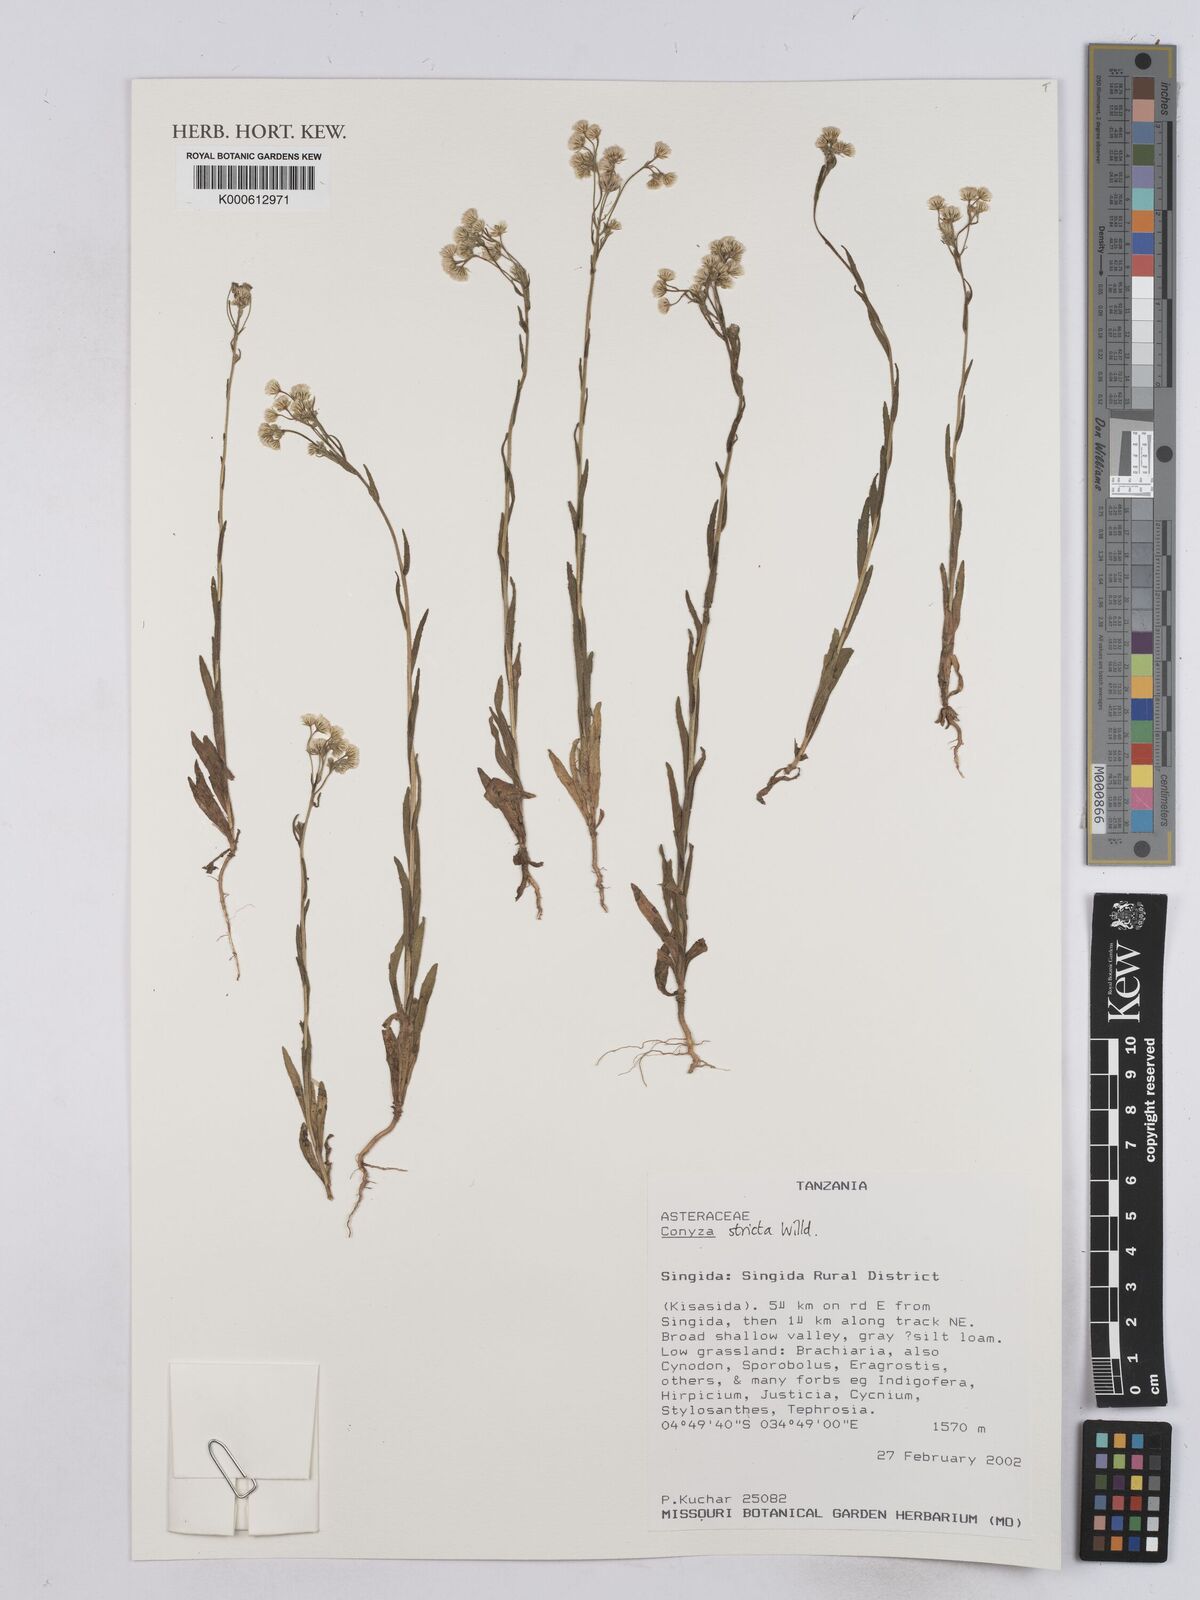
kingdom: Plantae
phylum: Tracheophyta
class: Magnoliopsida
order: Asterales
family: Asteraceae
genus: Nidorella
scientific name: Nidorella triloba
